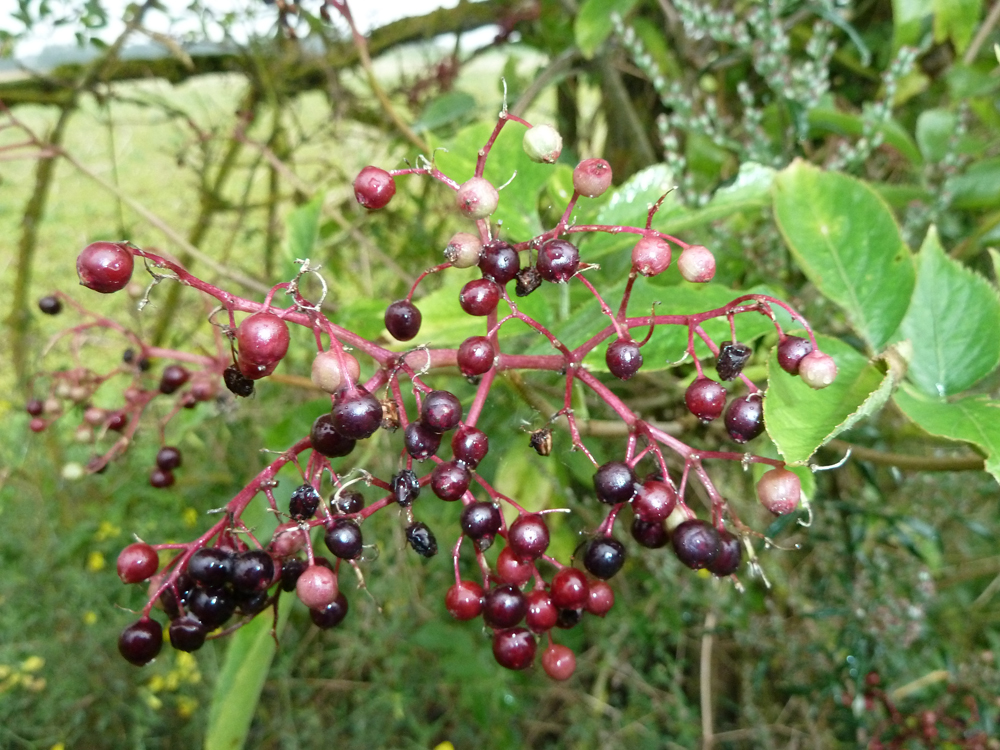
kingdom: Plantae
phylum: Tracheophyta
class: Magnoliopsida
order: Dipsacales
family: Viburnaceae
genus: Sambucus
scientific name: Sambucus nigra
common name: Elder
